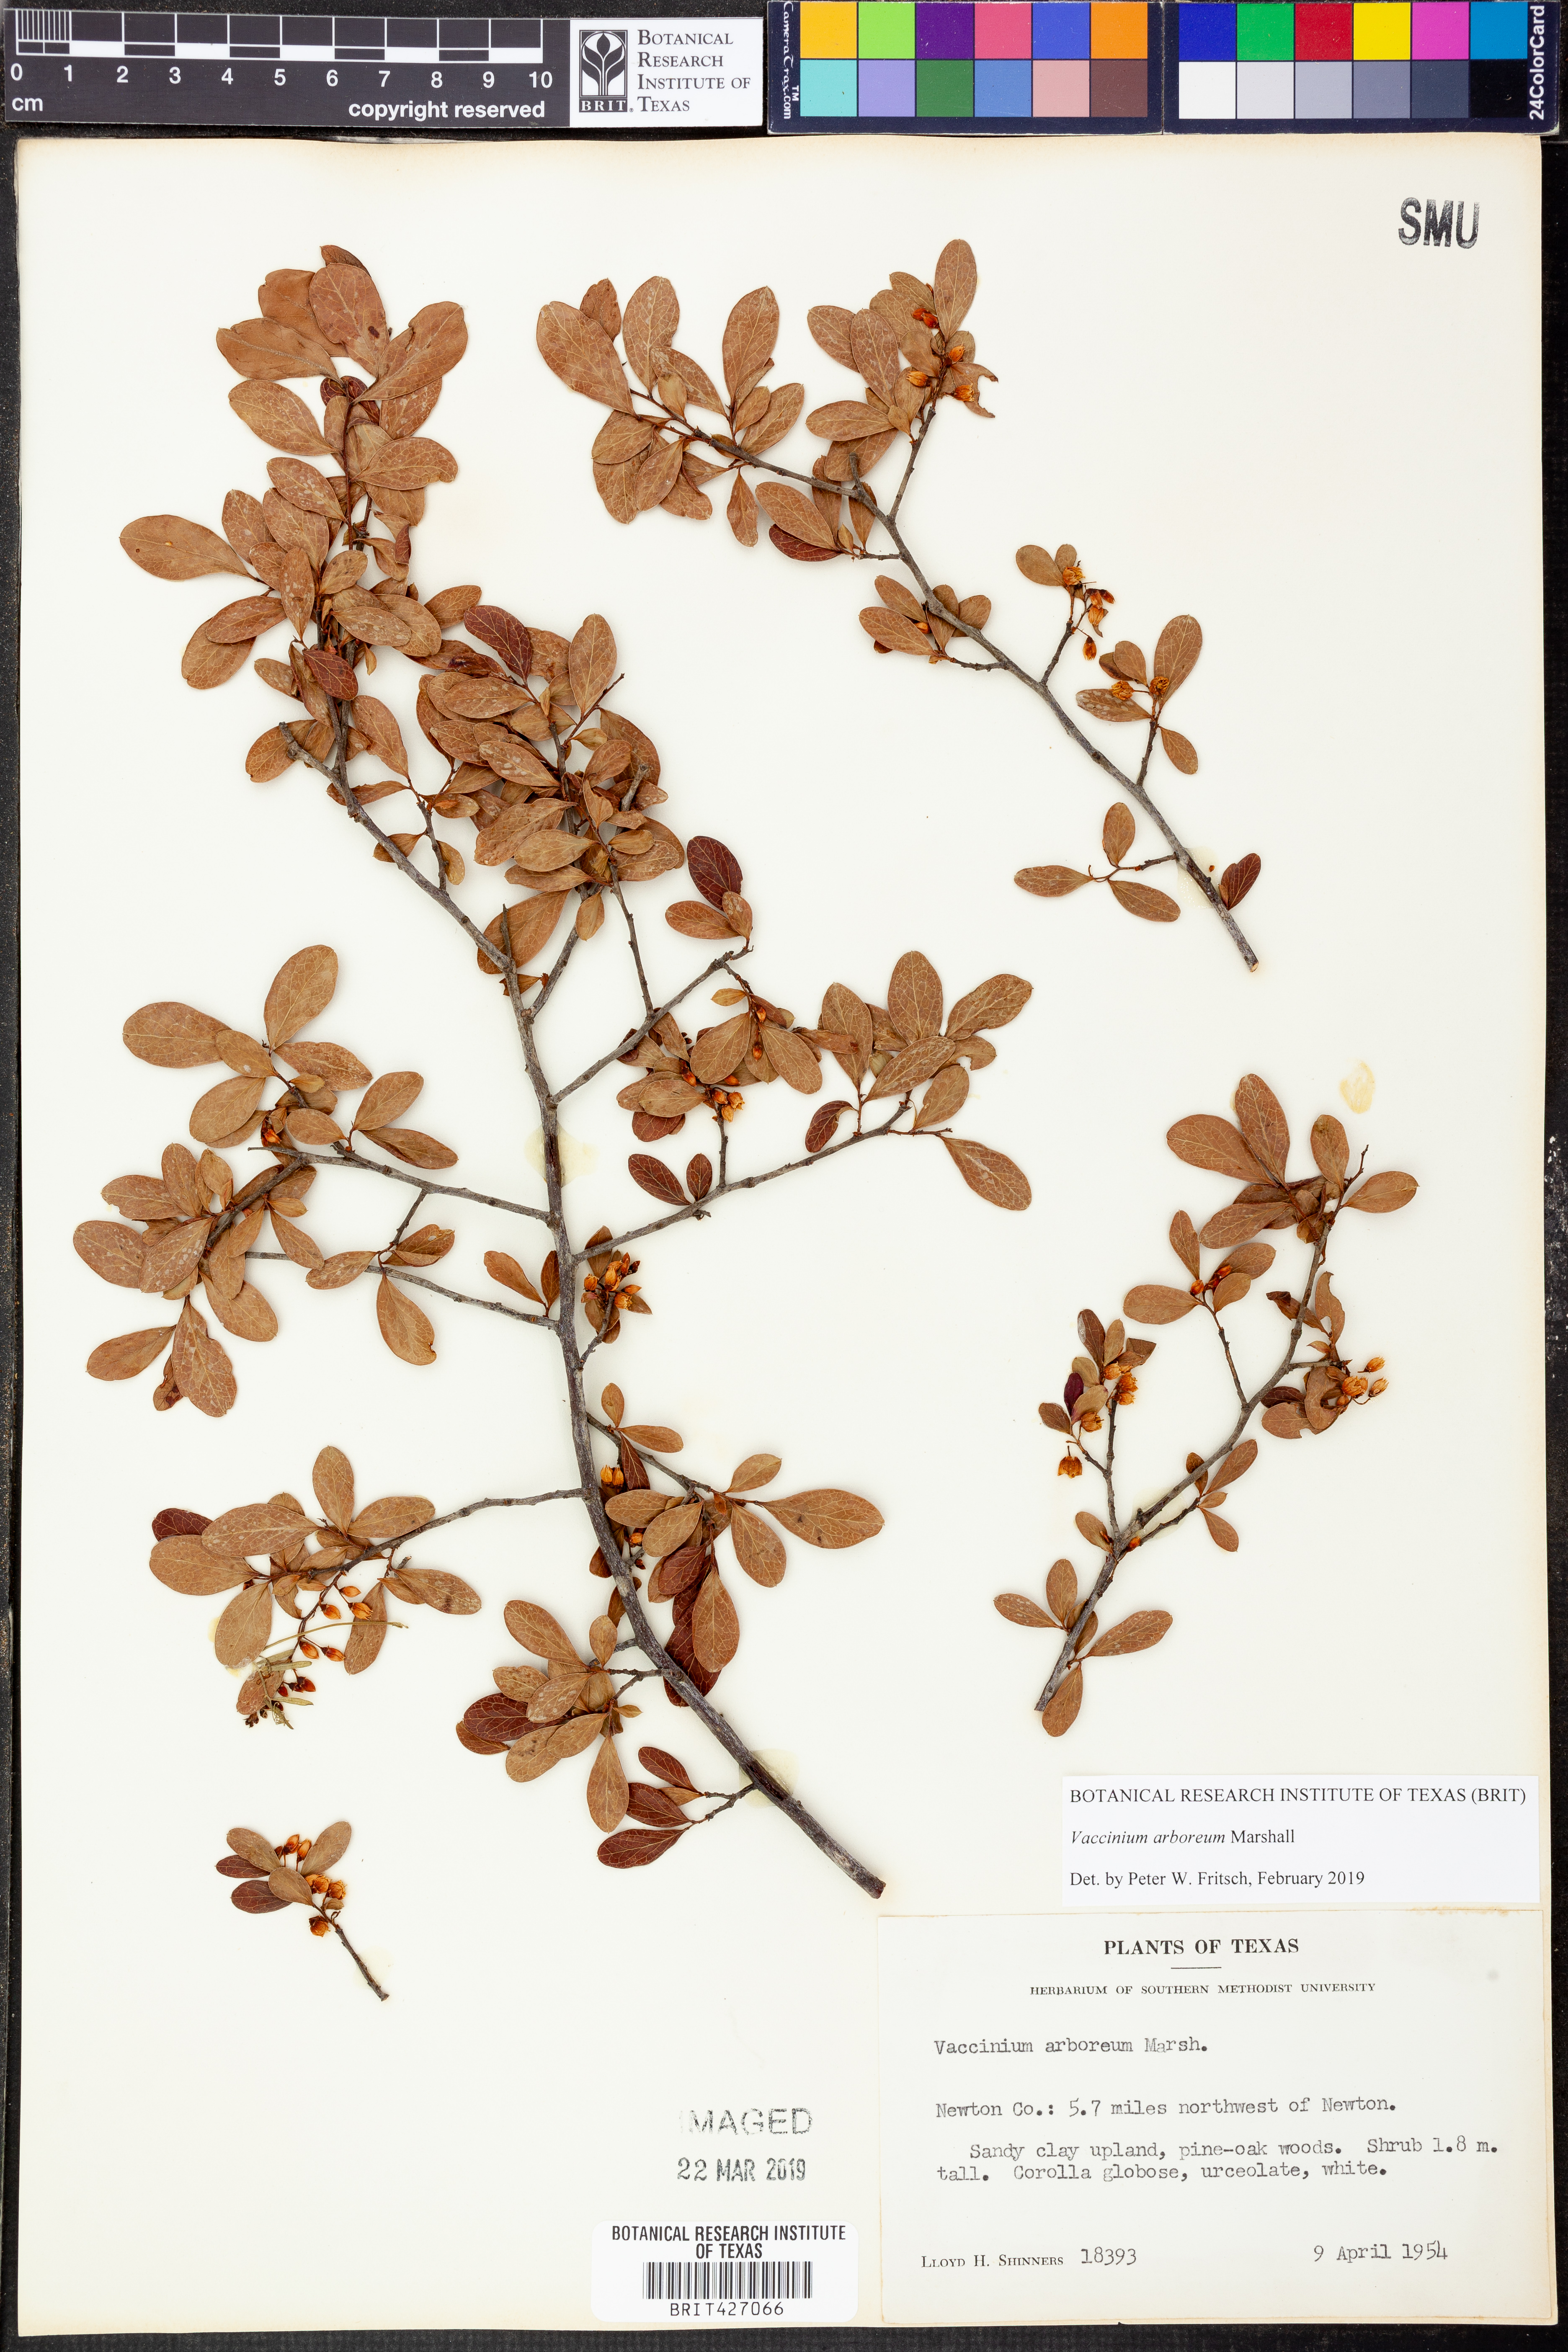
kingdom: Plantae
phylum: Tracheophyta
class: Magnoliopsida
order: Ericales
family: Ericaceae
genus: Vaccinium
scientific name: Vaccinium arboreum
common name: Farkleberry
